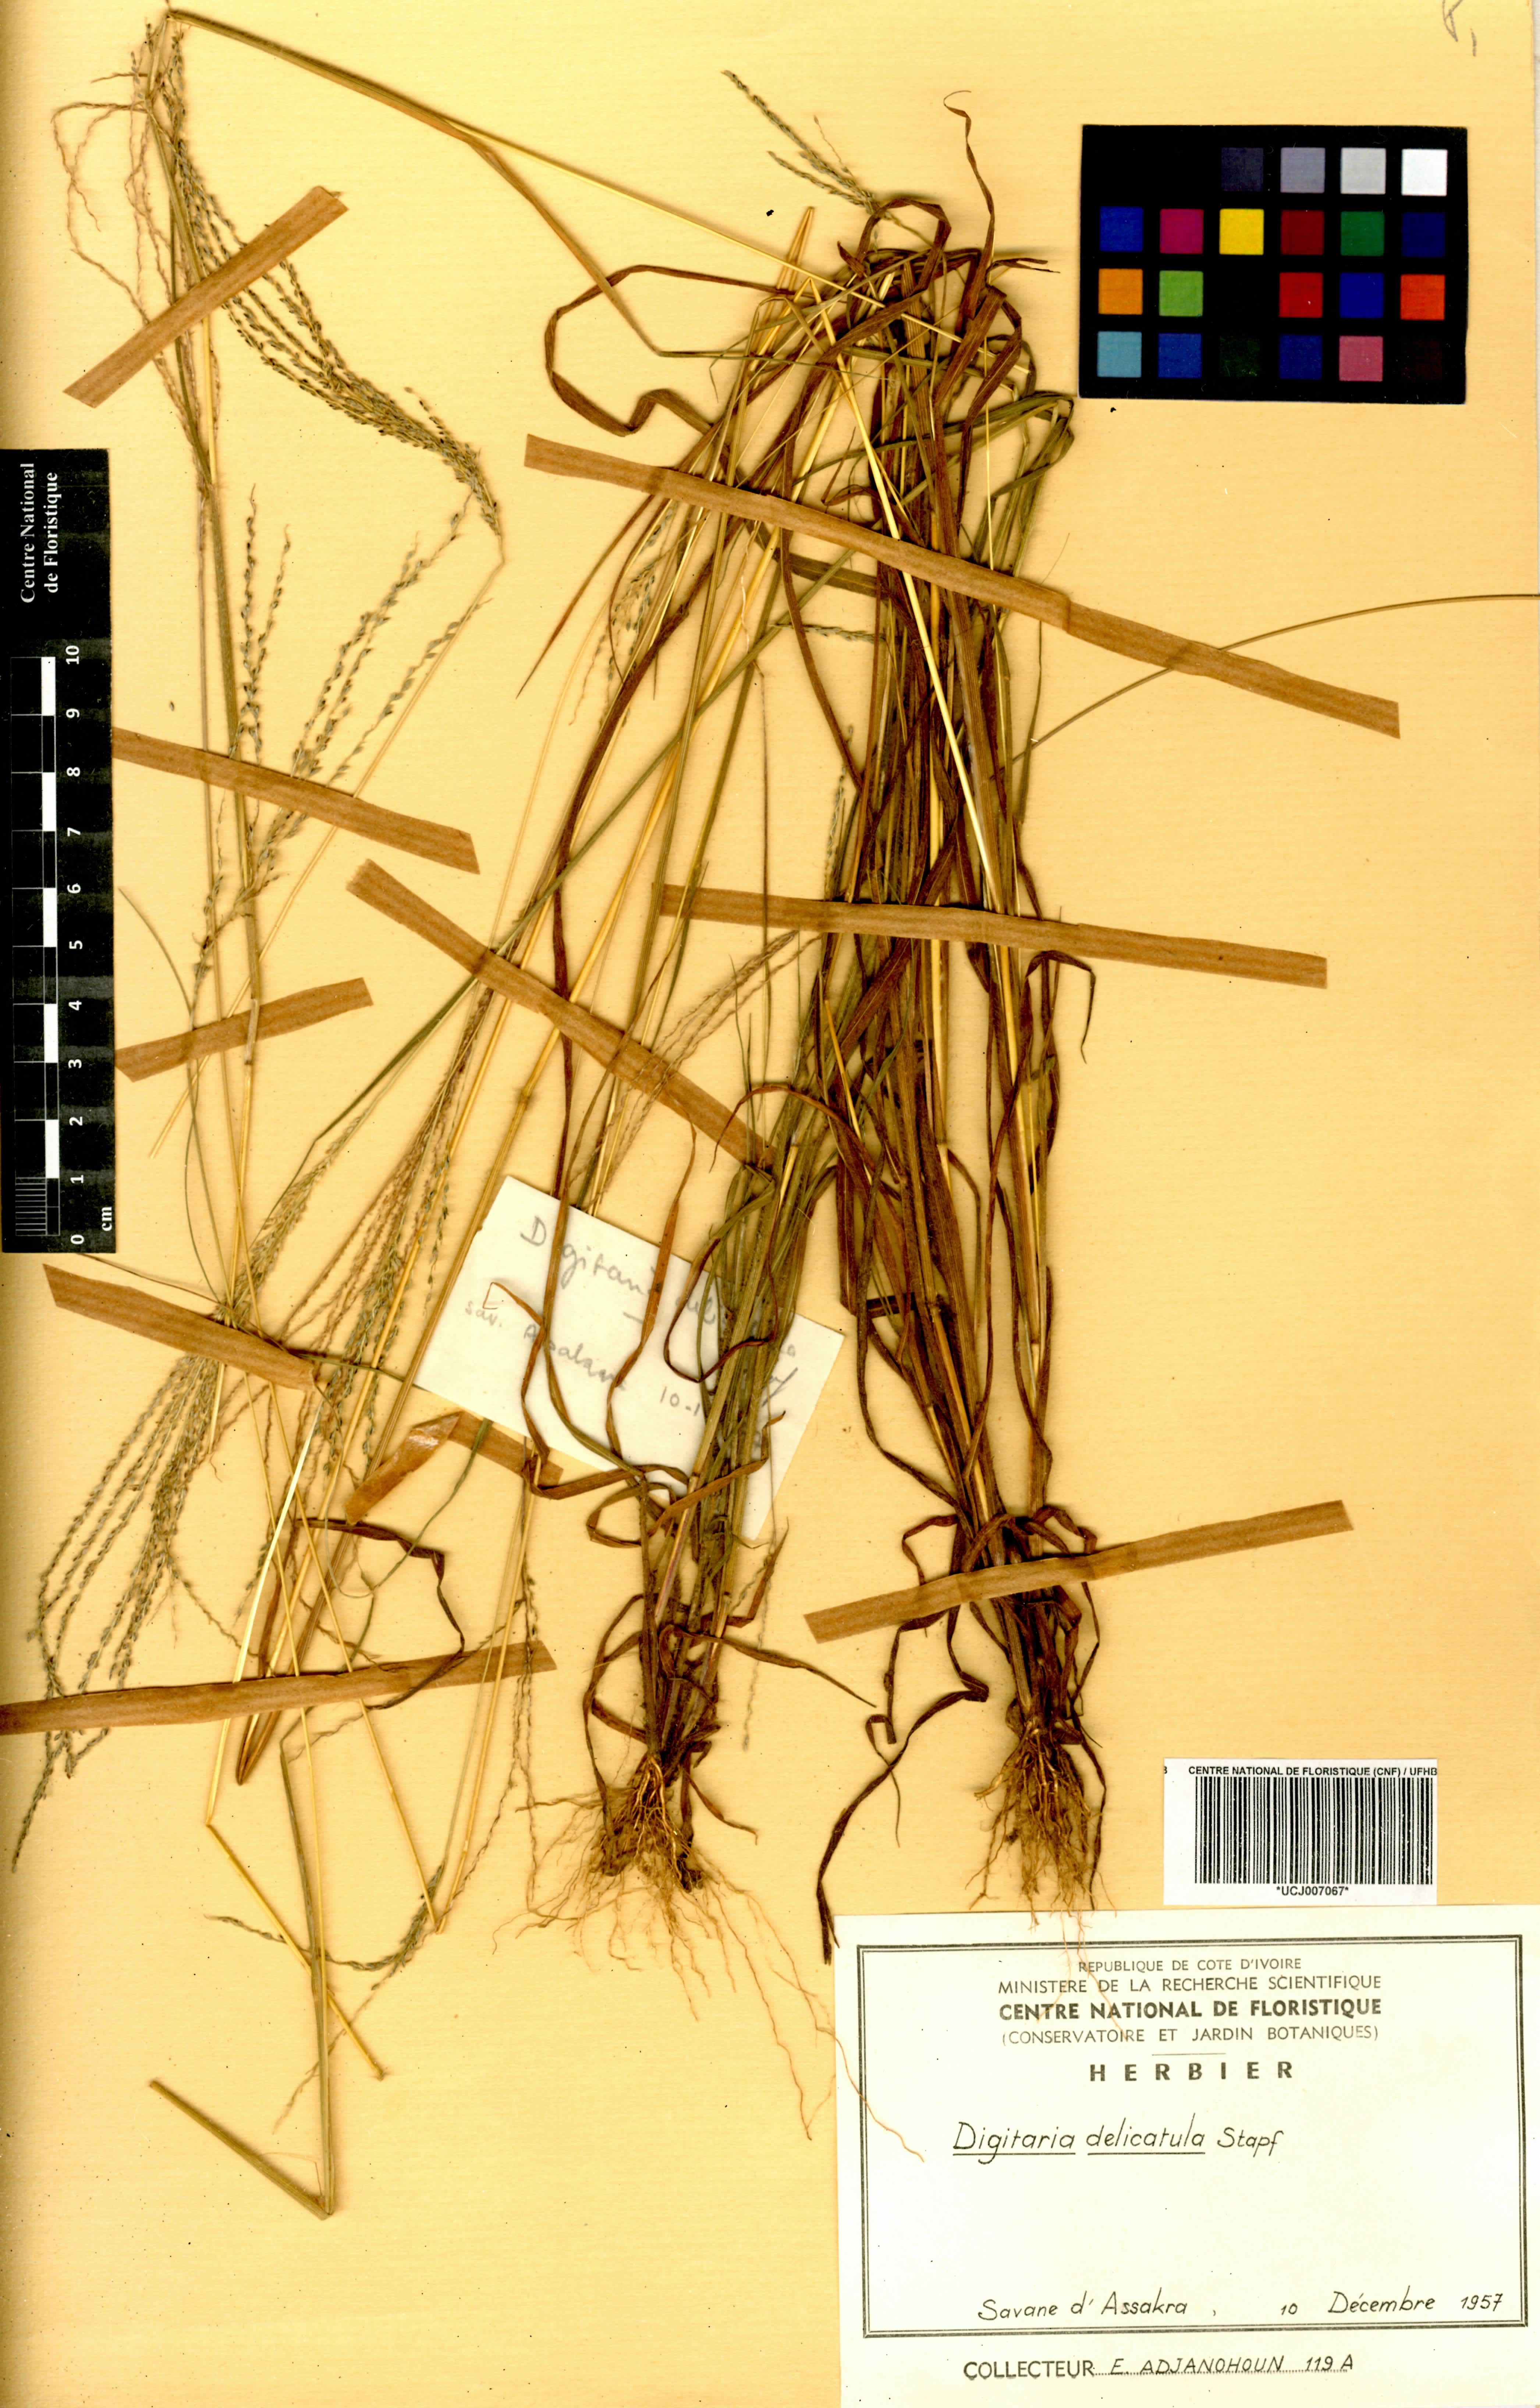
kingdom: Plantae
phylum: Tracheophyta
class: Liliopsida
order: Poales
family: Poaceae
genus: Digitaria
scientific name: Digitaria delicatula
